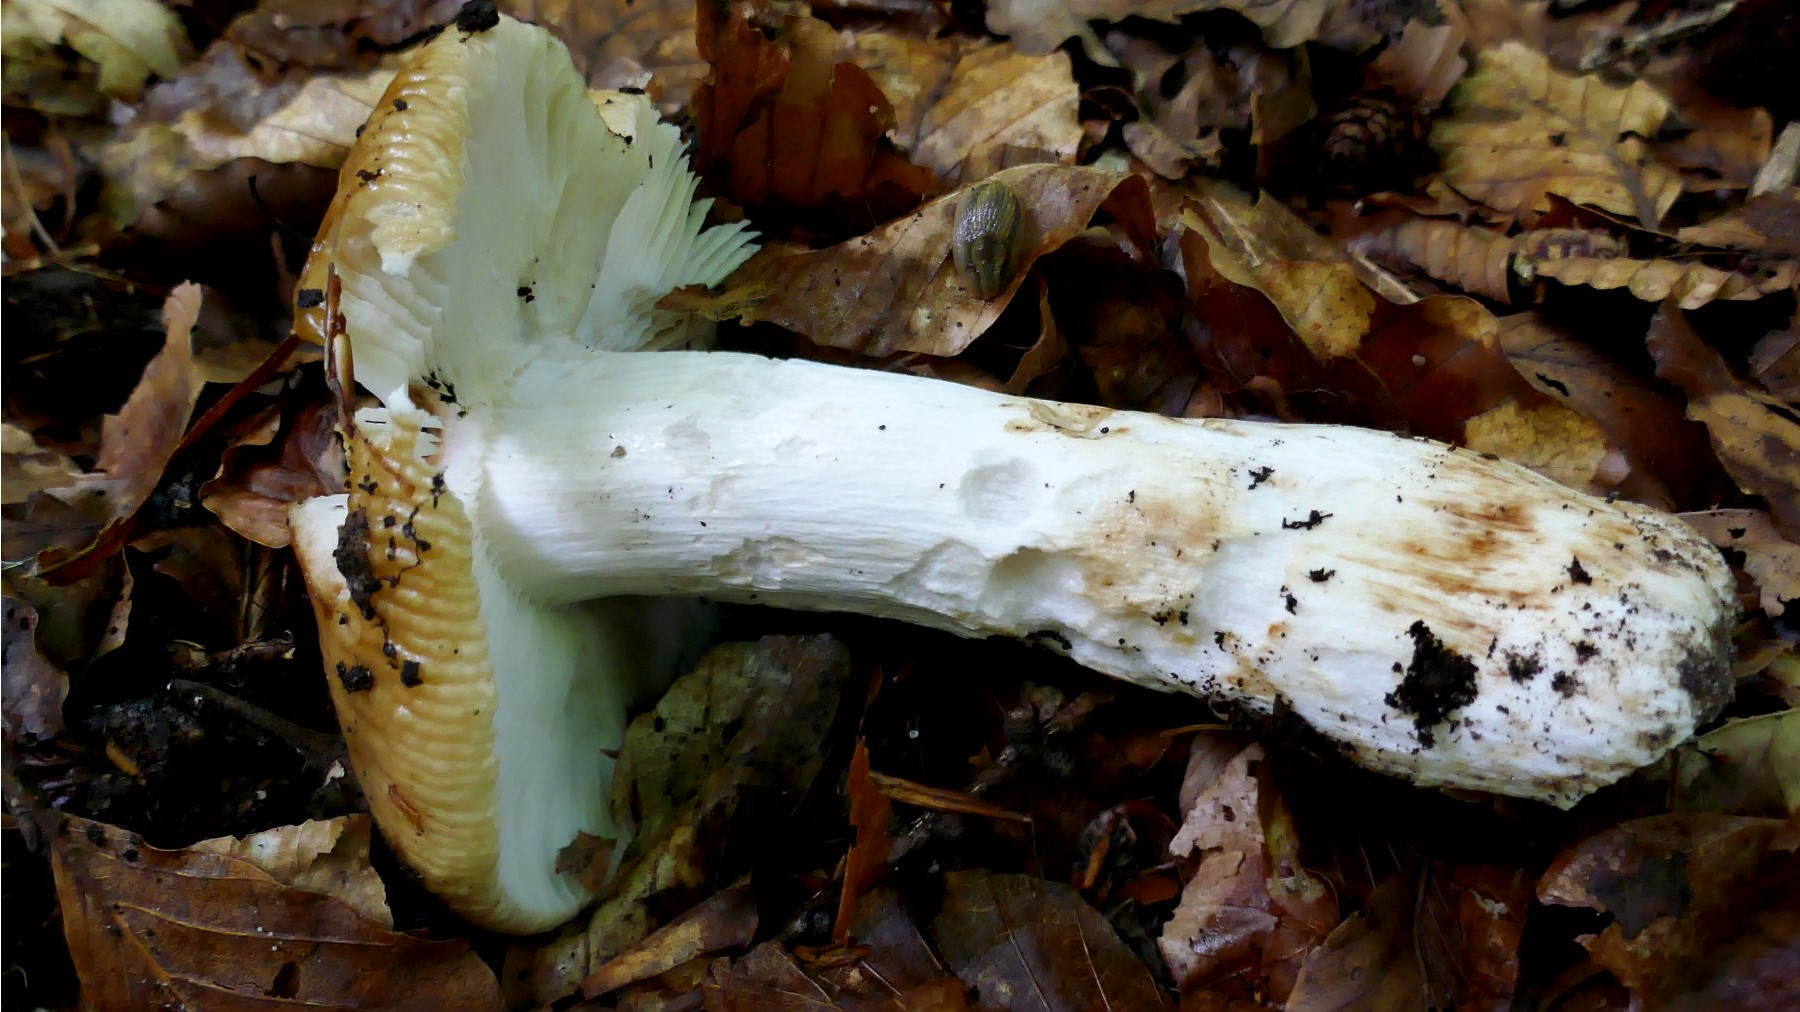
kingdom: Fungi
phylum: Basidiomycota
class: Agaricomycetes
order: Russulales
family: Russulaceae
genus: Russula
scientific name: Russula grata
